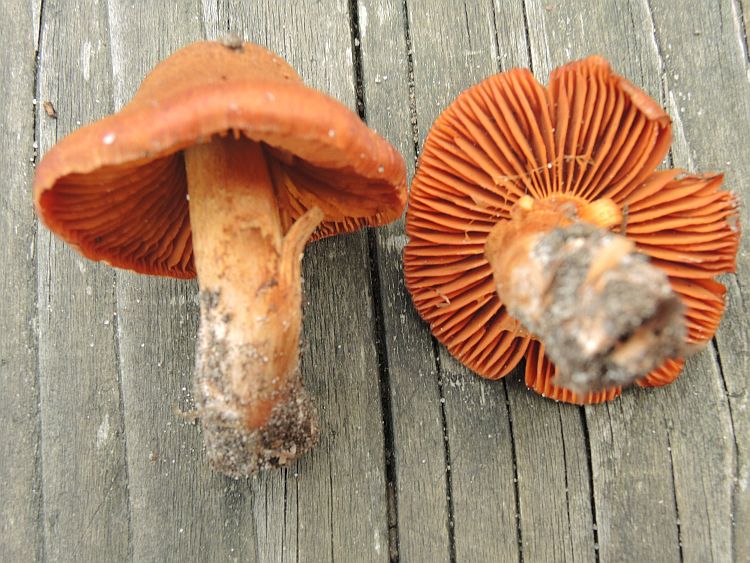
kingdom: Fungi
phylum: Basidiomycota
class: Agaricomycetes
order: Agaricales
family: Cortinariaceae
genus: Cortinarius
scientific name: Cortinarius orellanus
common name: hvælvet gift-slørhat
